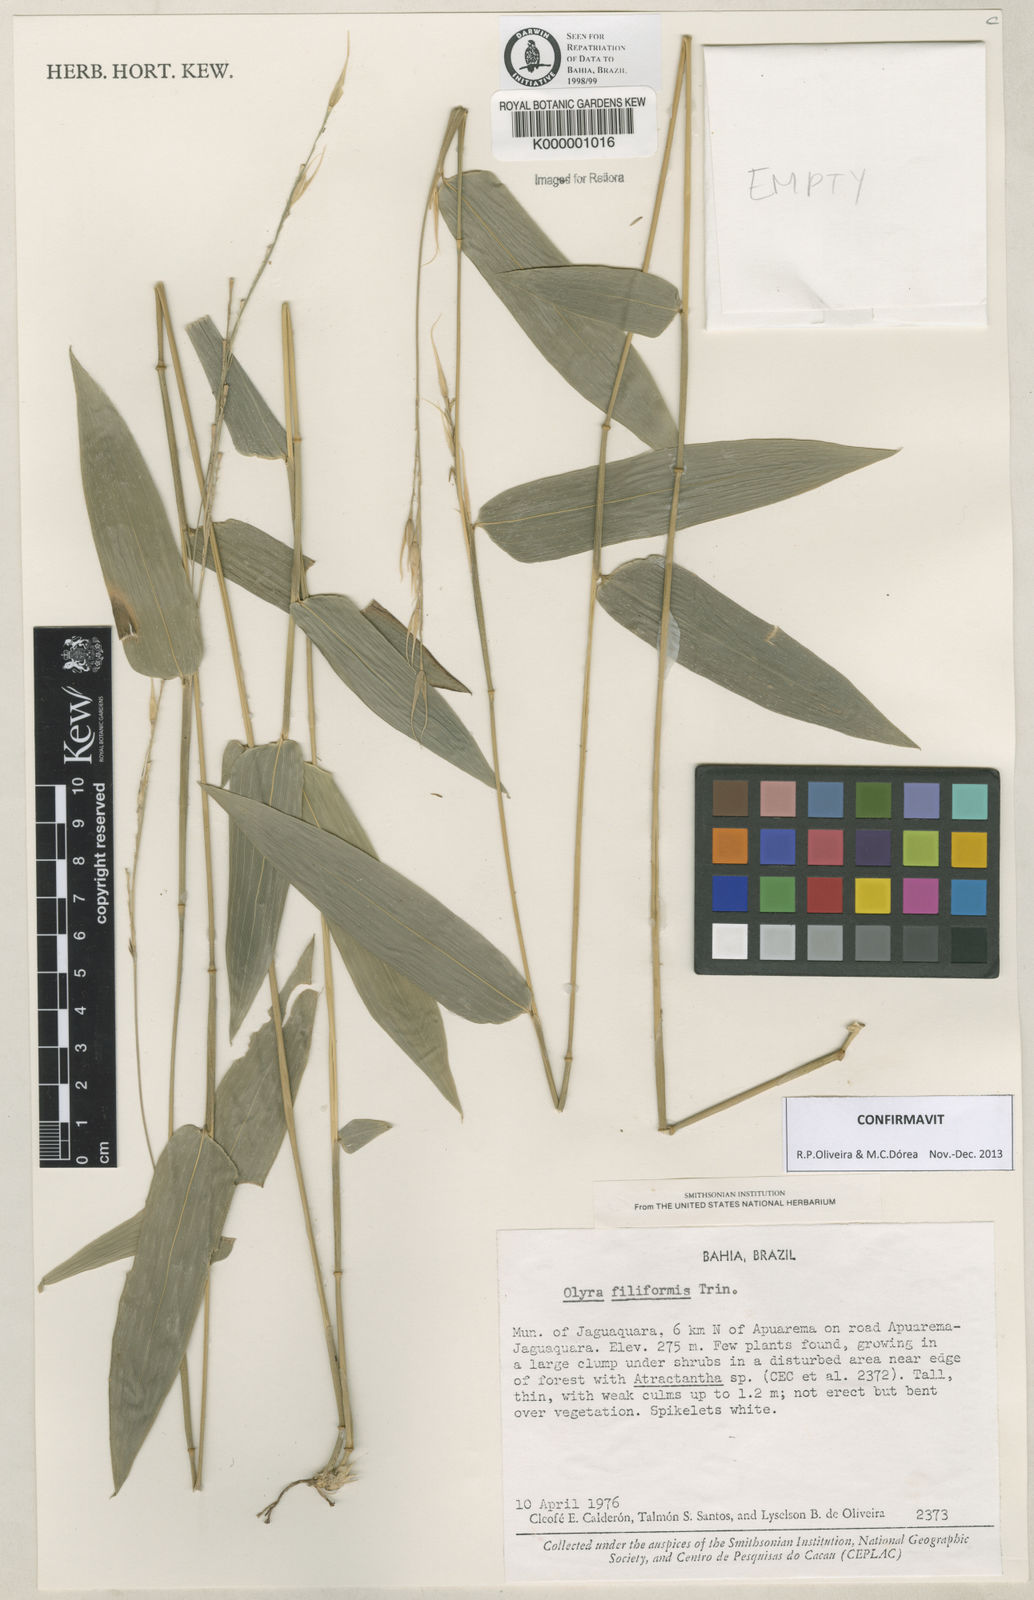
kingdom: Plantae
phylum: Tracheophyta
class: Liliopsida
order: Poales
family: Poaceae
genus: Olyra
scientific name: Olyra filiformis
